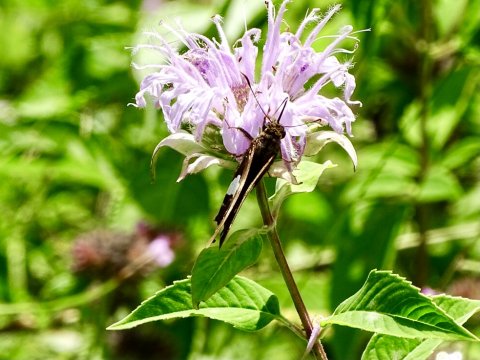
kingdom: Animalia
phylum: Arthropoda
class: Insecta
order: Lepidoptera
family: Hesperiidae
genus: Epargyreus
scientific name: Epargyreus clarus
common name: Silver-spotted Skipper
